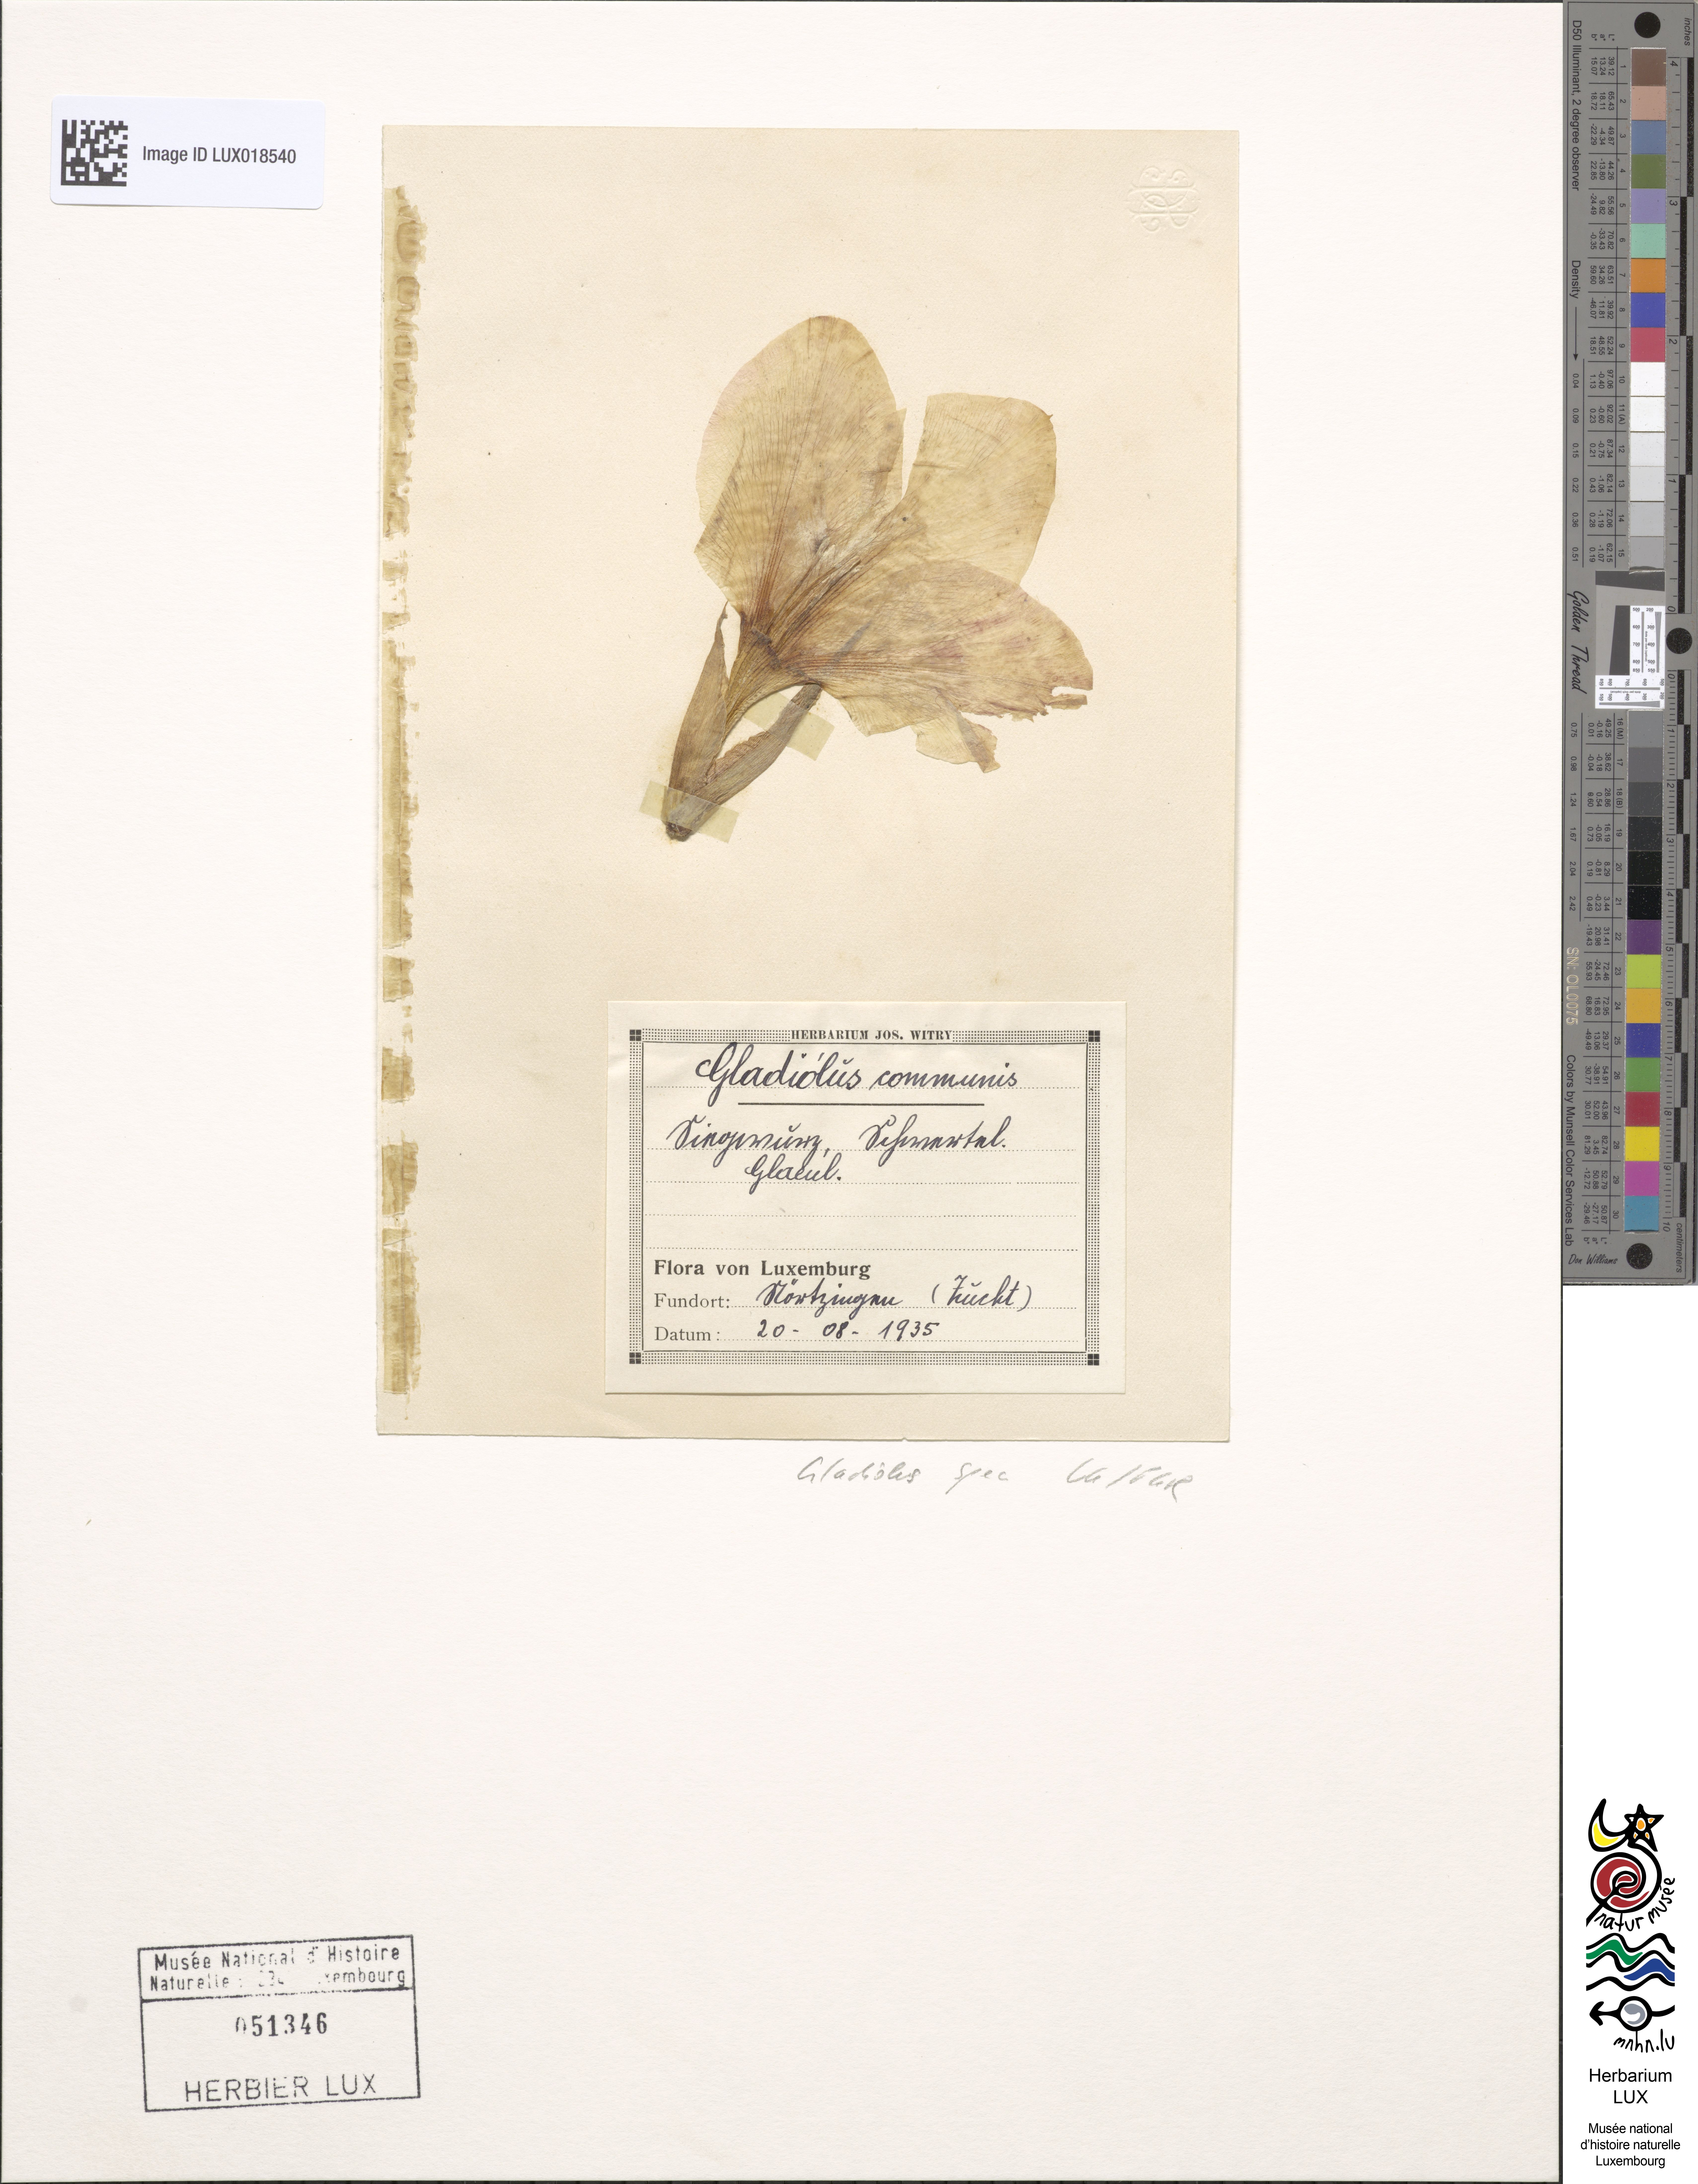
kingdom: Plantae
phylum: Tracheophyta
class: Liliopsida
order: Asparagales
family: Iridaceae
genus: Gladiolus
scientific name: Gladiolus
